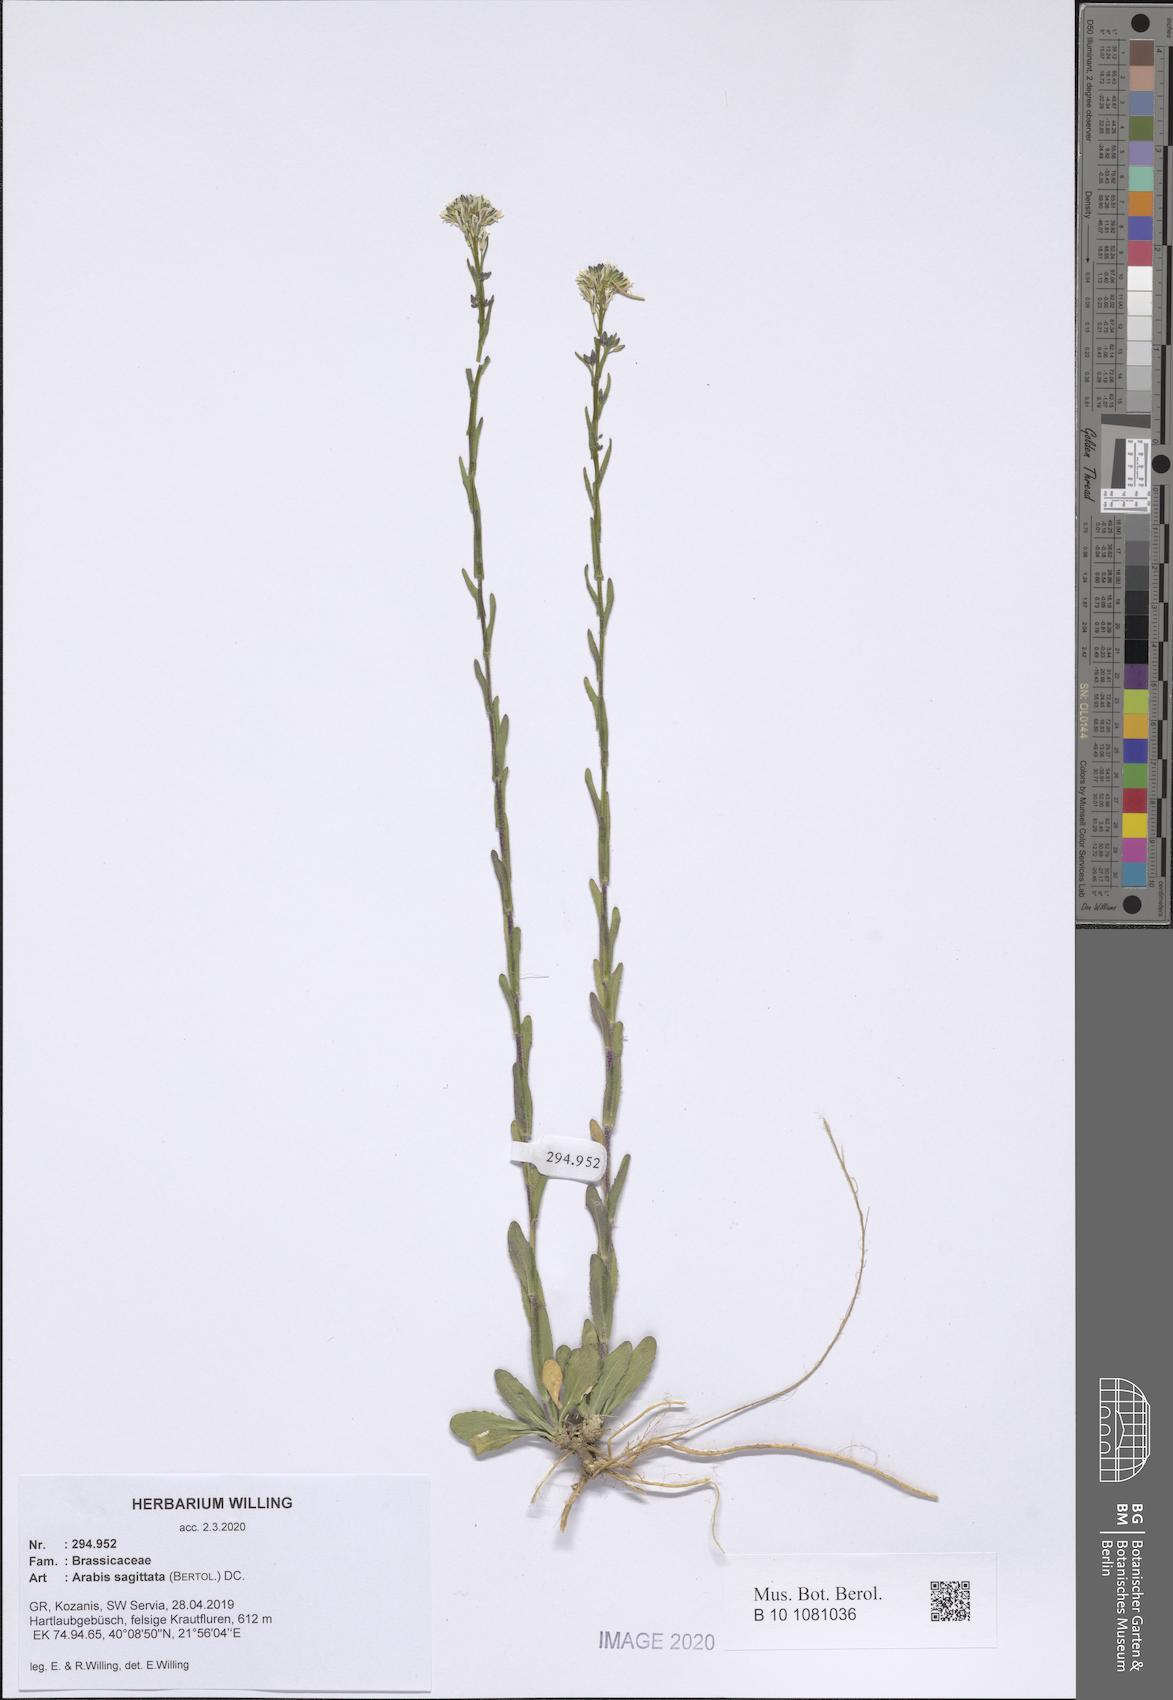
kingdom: Plantae
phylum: Tracheophyta
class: Magnoliopsida
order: Brassicales
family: Brassicaceae
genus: Arabis
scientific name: Arabis sagittata
